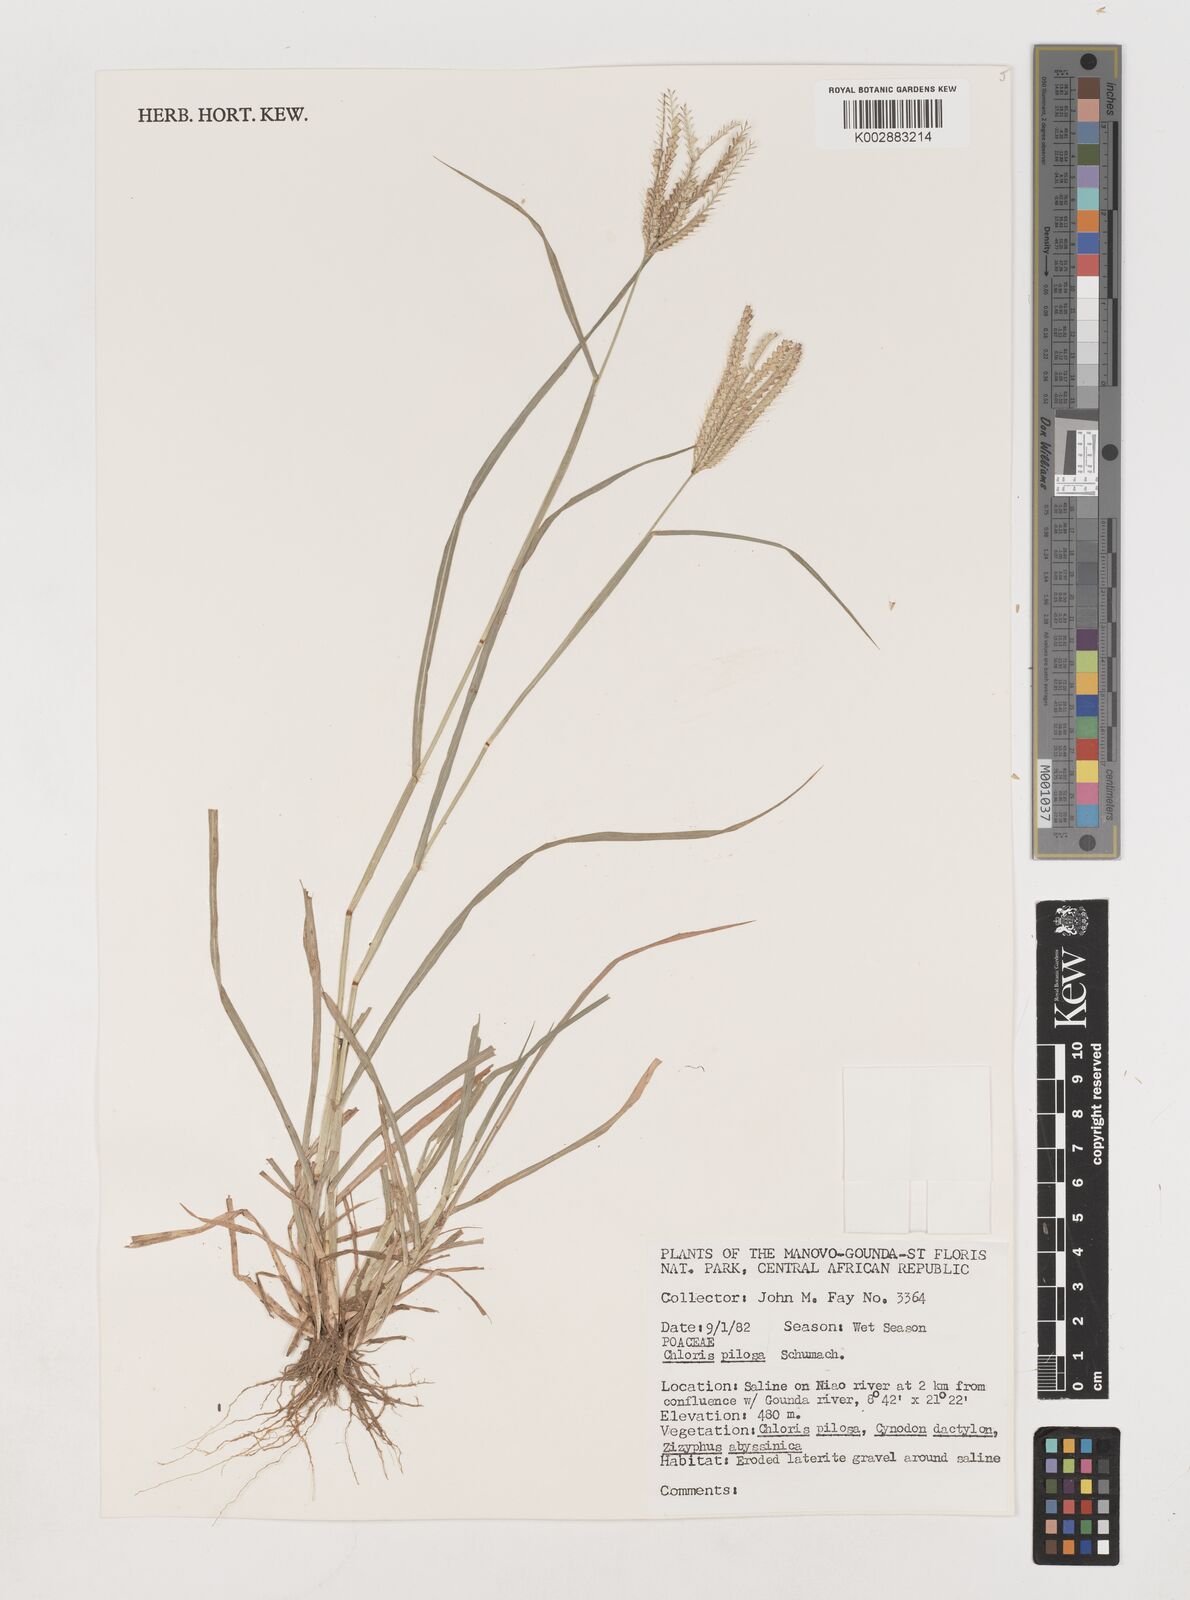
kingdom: Plantae
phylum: Tracheophyta
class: Liliopsida
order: Poales
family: Poaceae
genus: Chloris
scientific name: Chloris pilosa
